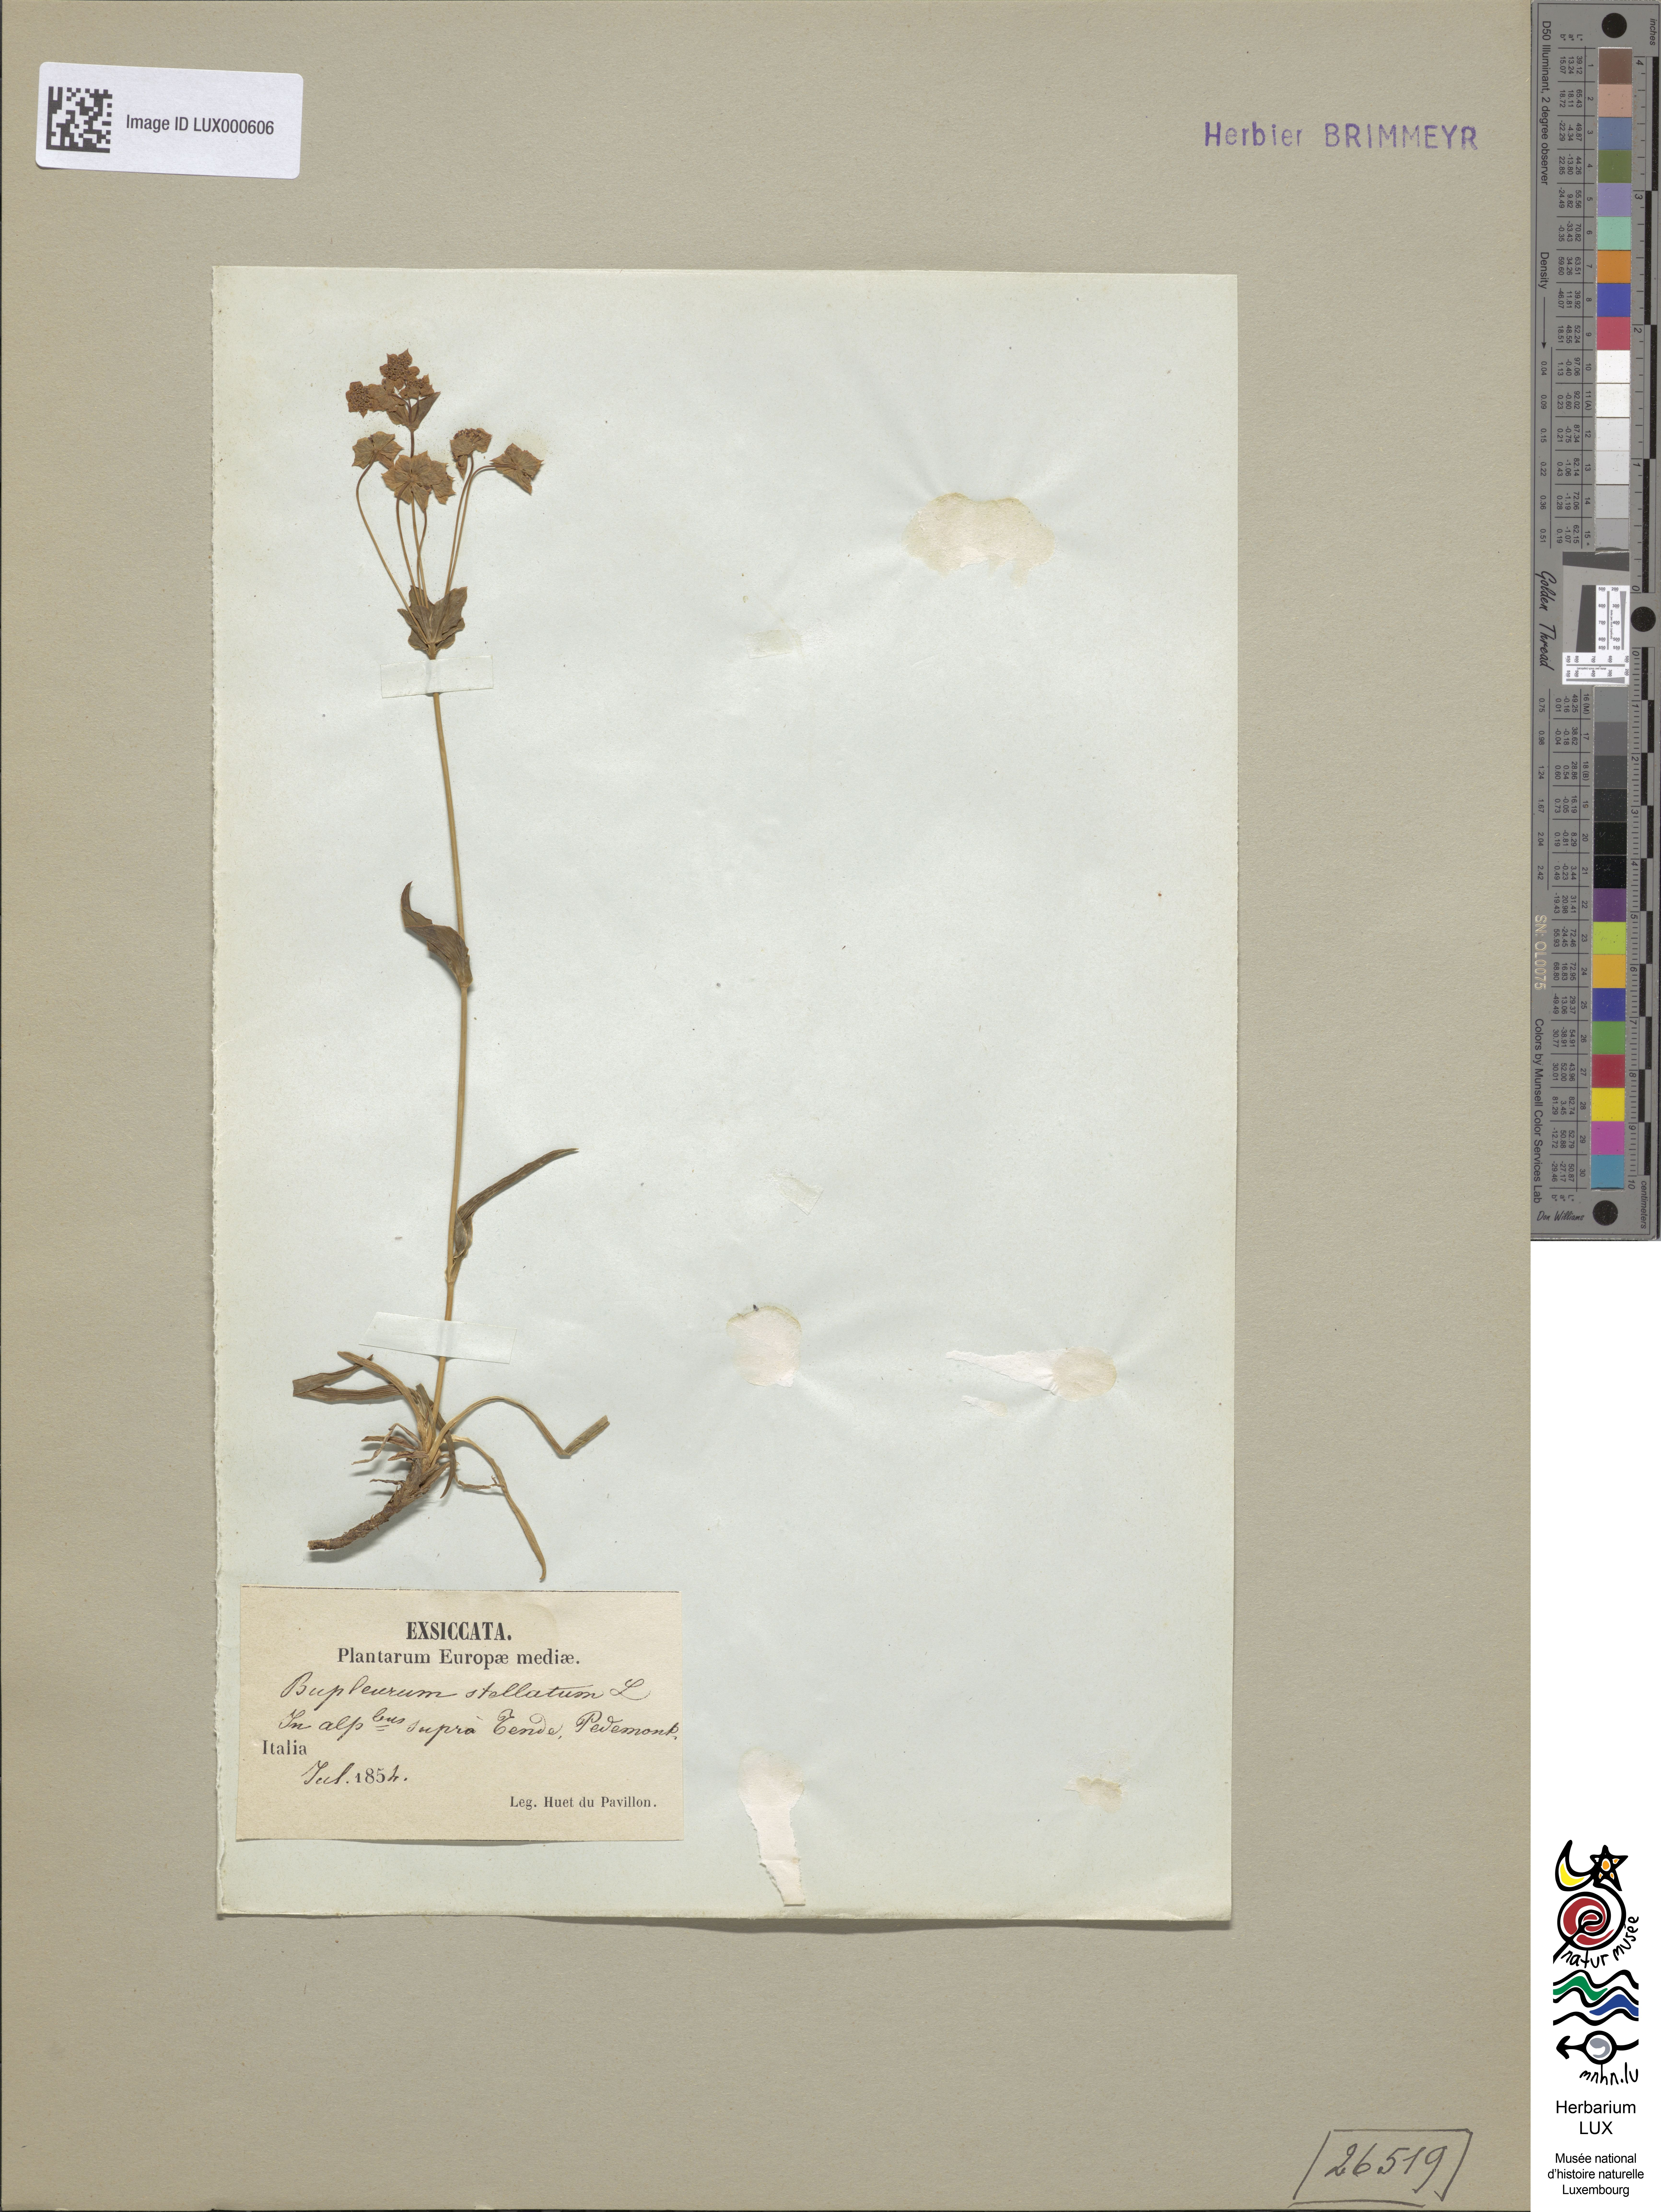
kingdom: Plantae
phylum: Tracheophyta
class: Magnoliopsida
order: Apiales
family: Apiaceae
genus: Bupleurum
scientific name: Bupleurum stellatum
